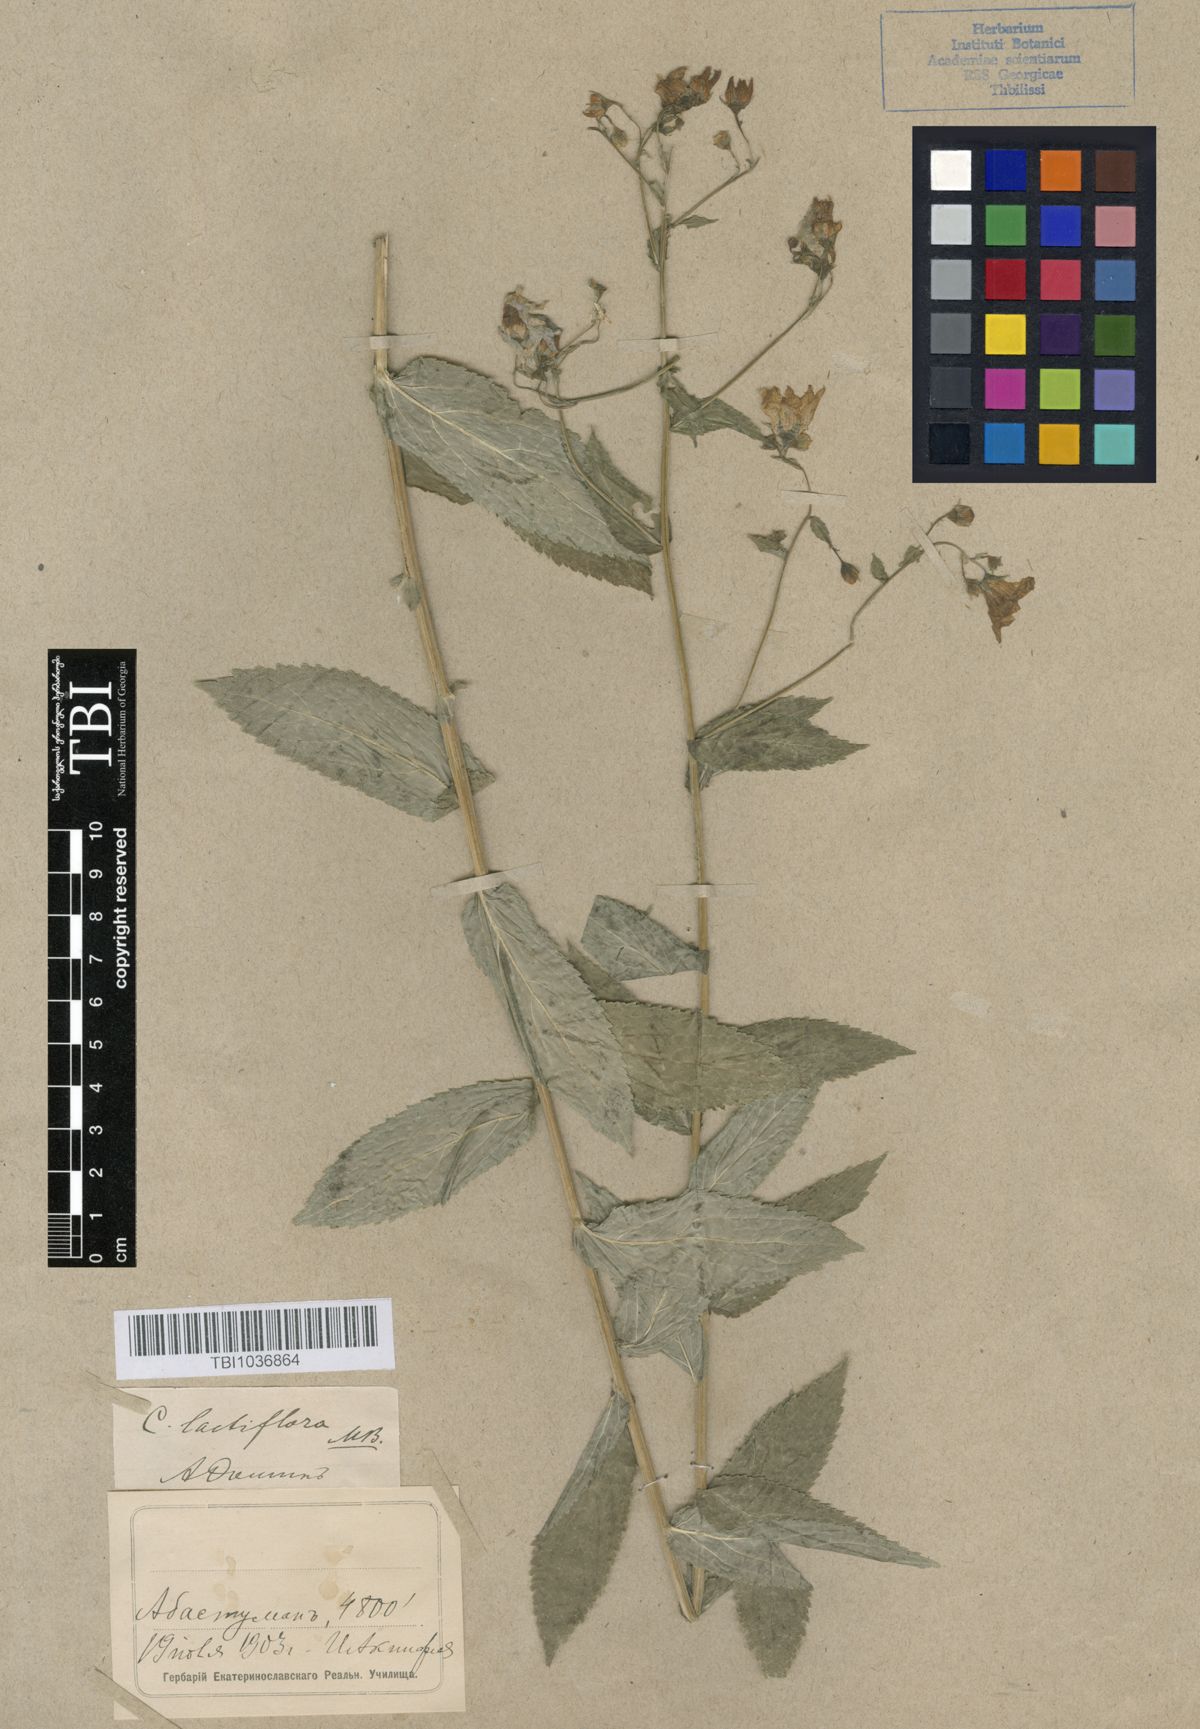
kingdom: Plantae
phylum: Tracheophyta
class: Magnoliopsida
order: Asterales
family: Campanulaceae
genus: Campanula
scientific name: Campanula lactiflora
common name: Milky bellflower
